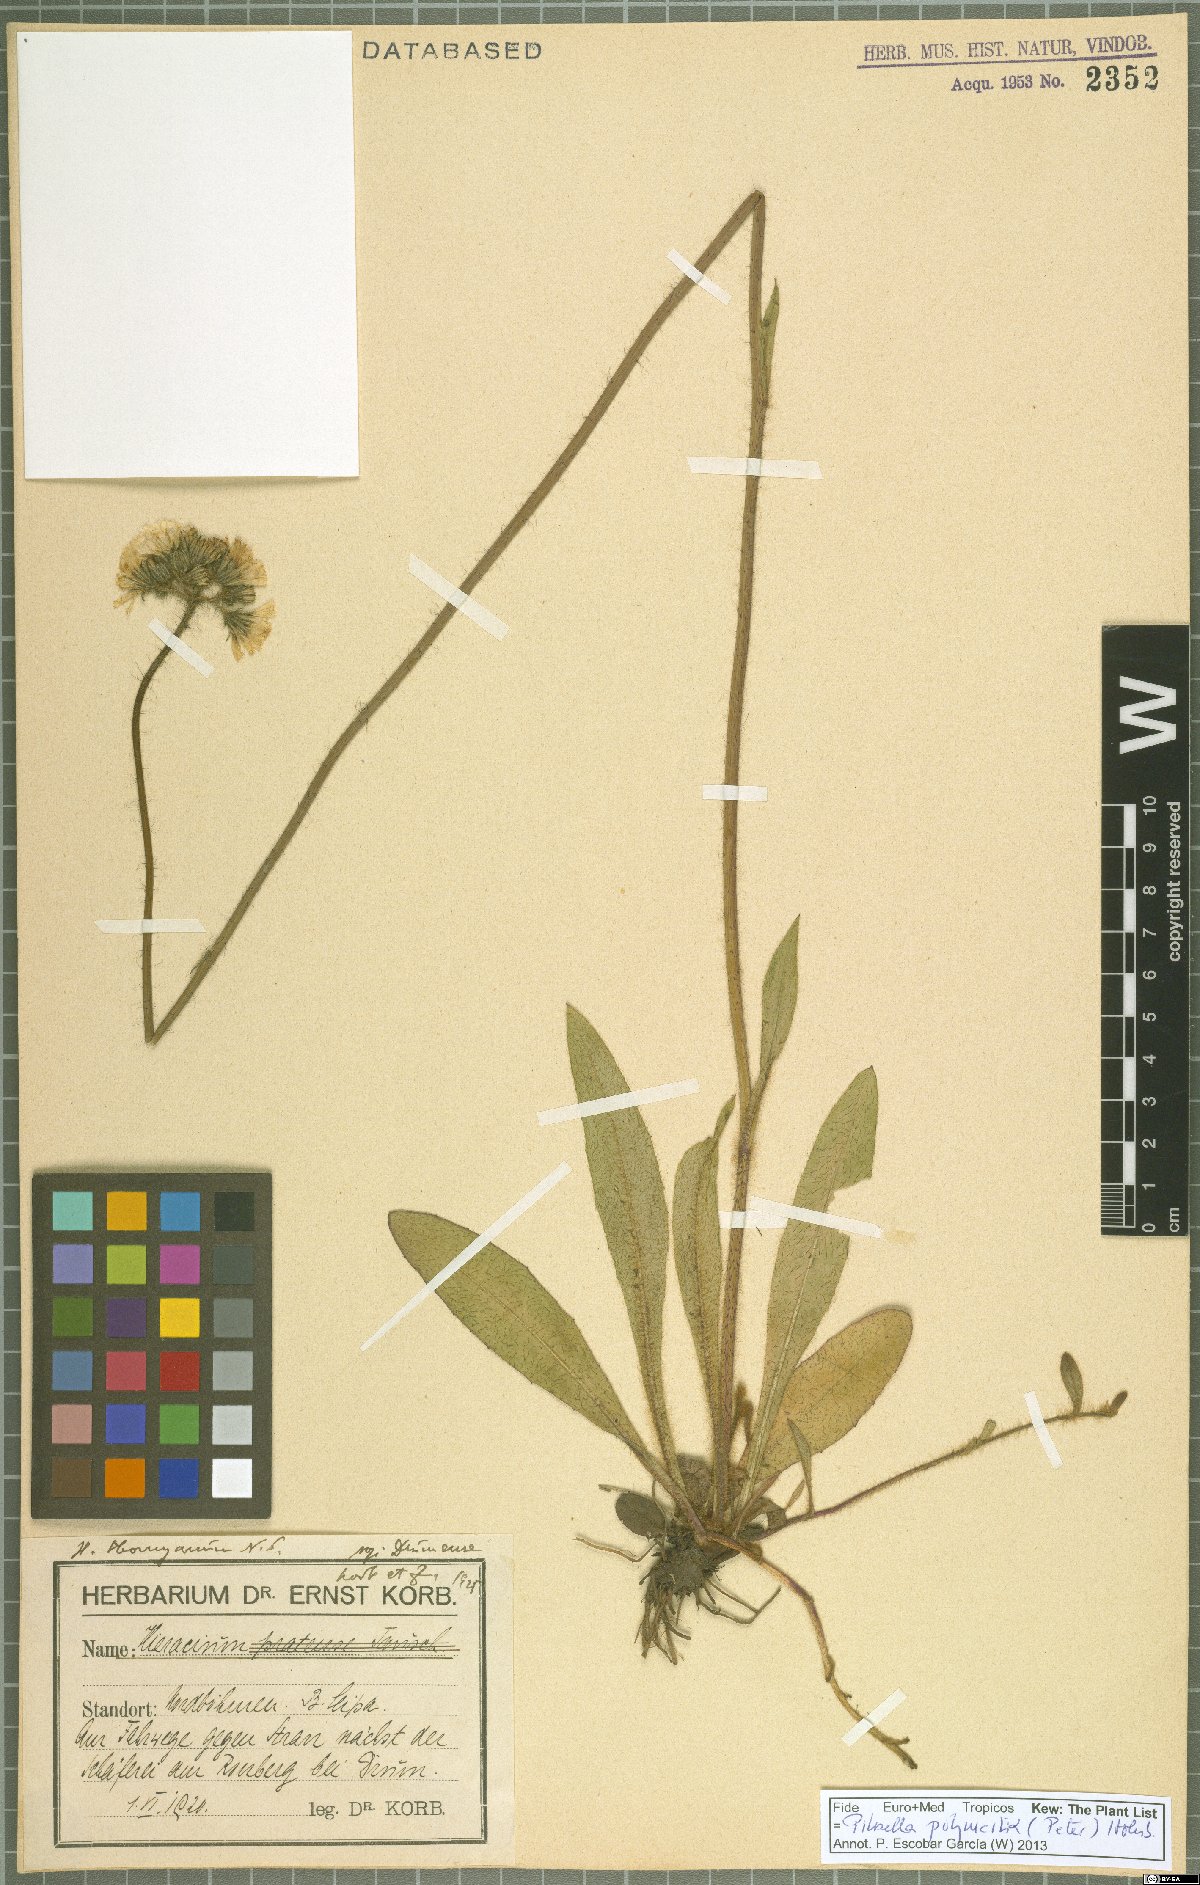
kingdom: Plantae
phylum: Tracheophyta
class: Magnoliopsida
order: Asterales
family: Asteraceae
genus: Pilosella
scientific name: Pilosella polymastix
